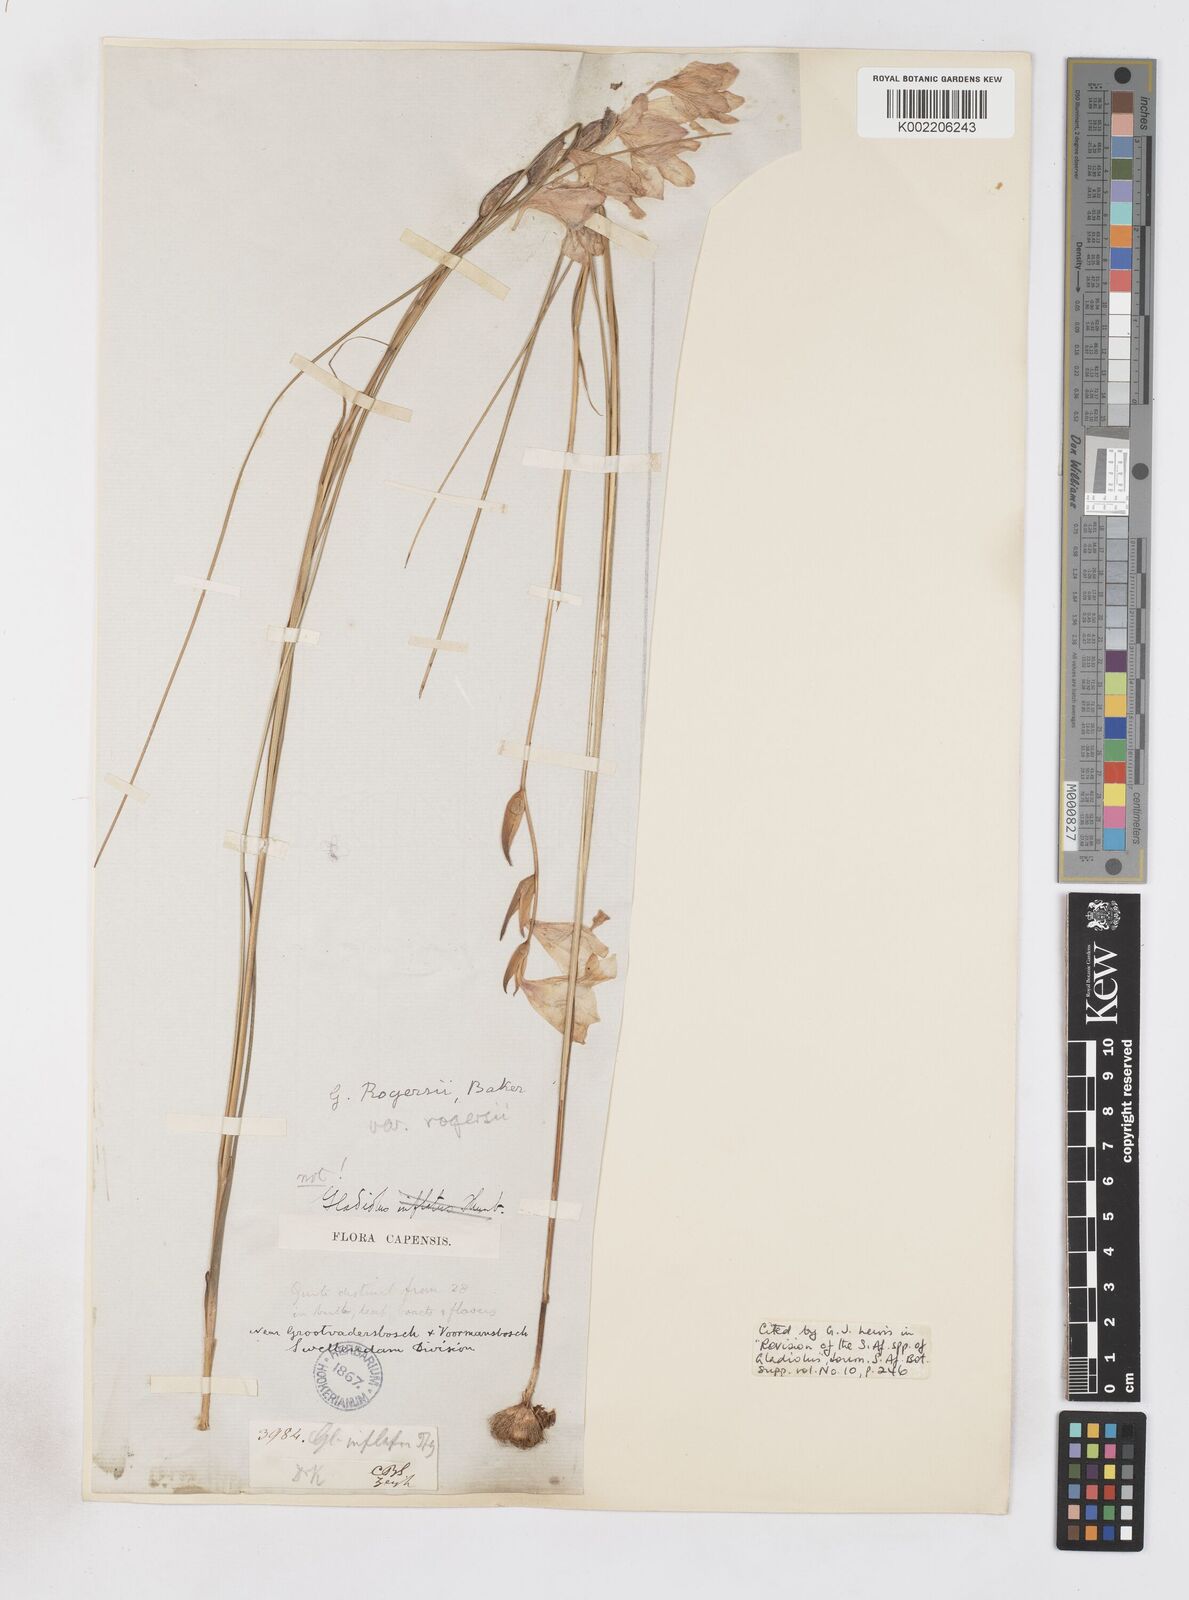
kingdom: Plantae
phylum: Tracheophyta
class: Liliopsida
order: Asparagales
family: Iridaceae
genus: Gladiolus
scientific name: Gladiolus rogersii
